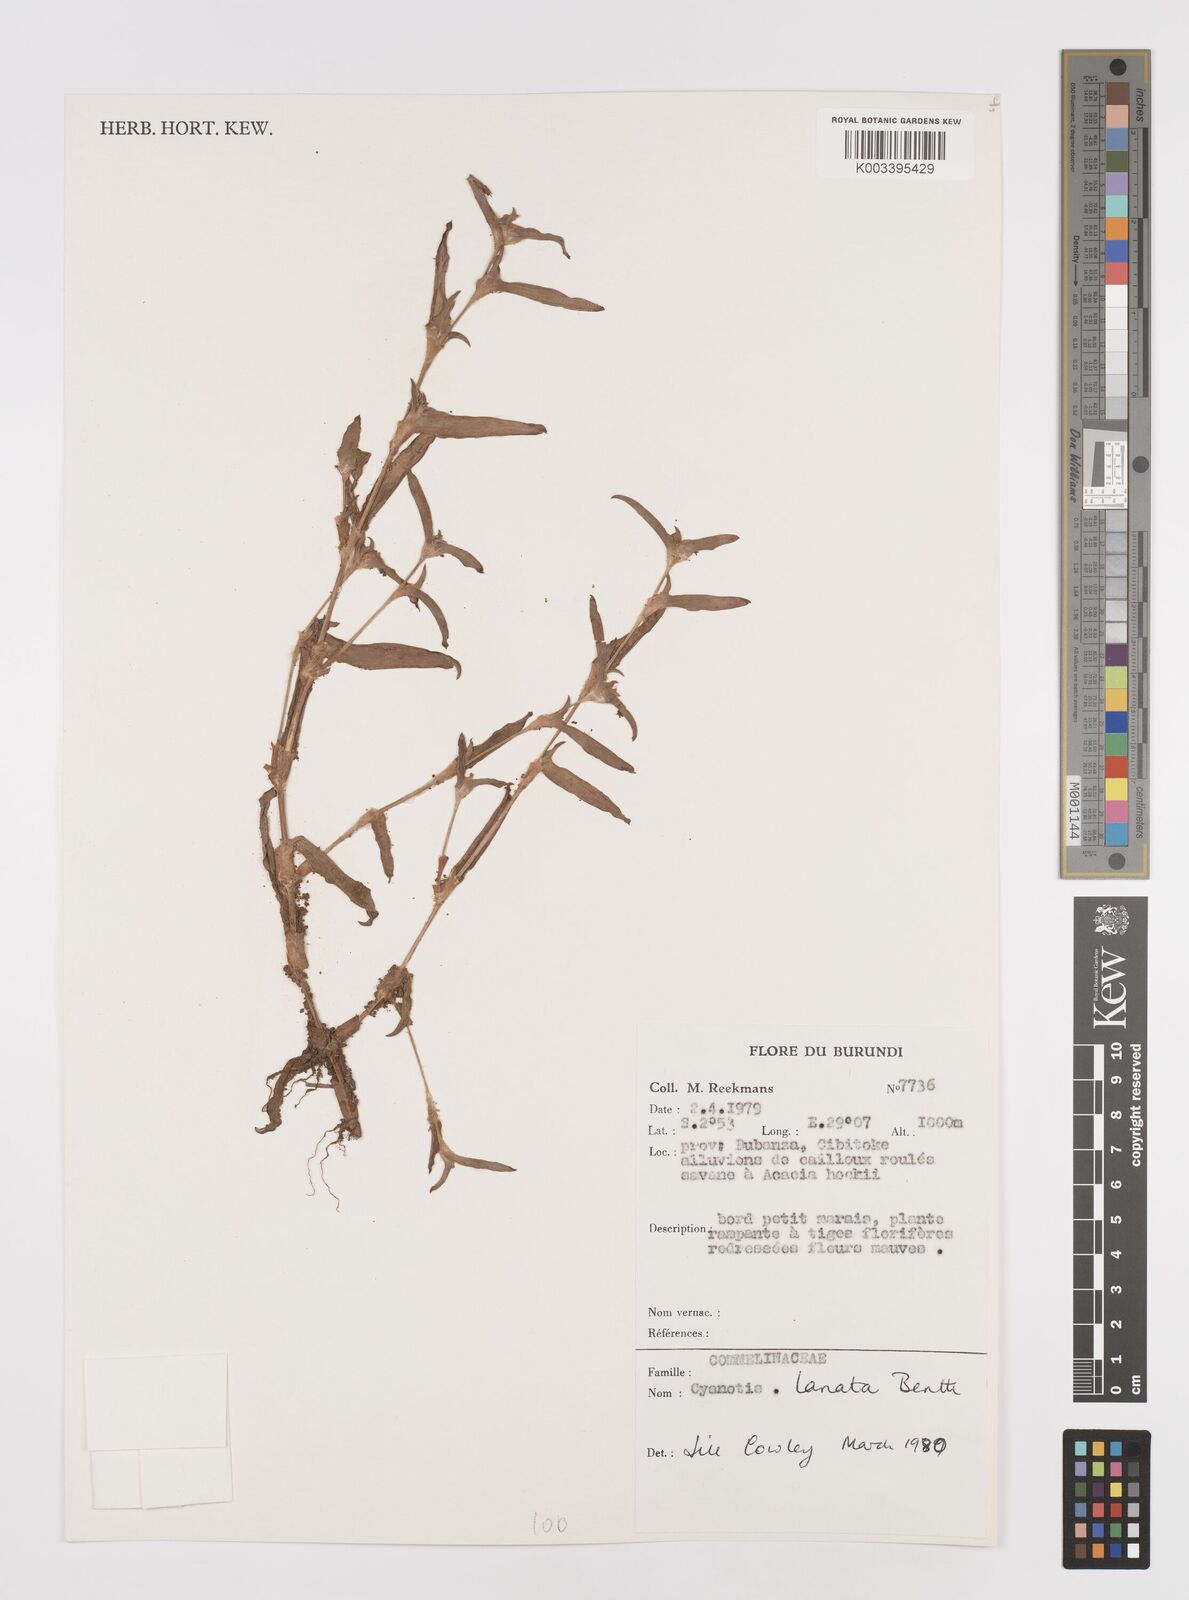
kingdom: Plantae
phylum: Tracheophyta
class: Liliopsida
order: Commelinales
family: Commelinaceae
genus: Cyanotis
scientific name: Cyanotis lanata
